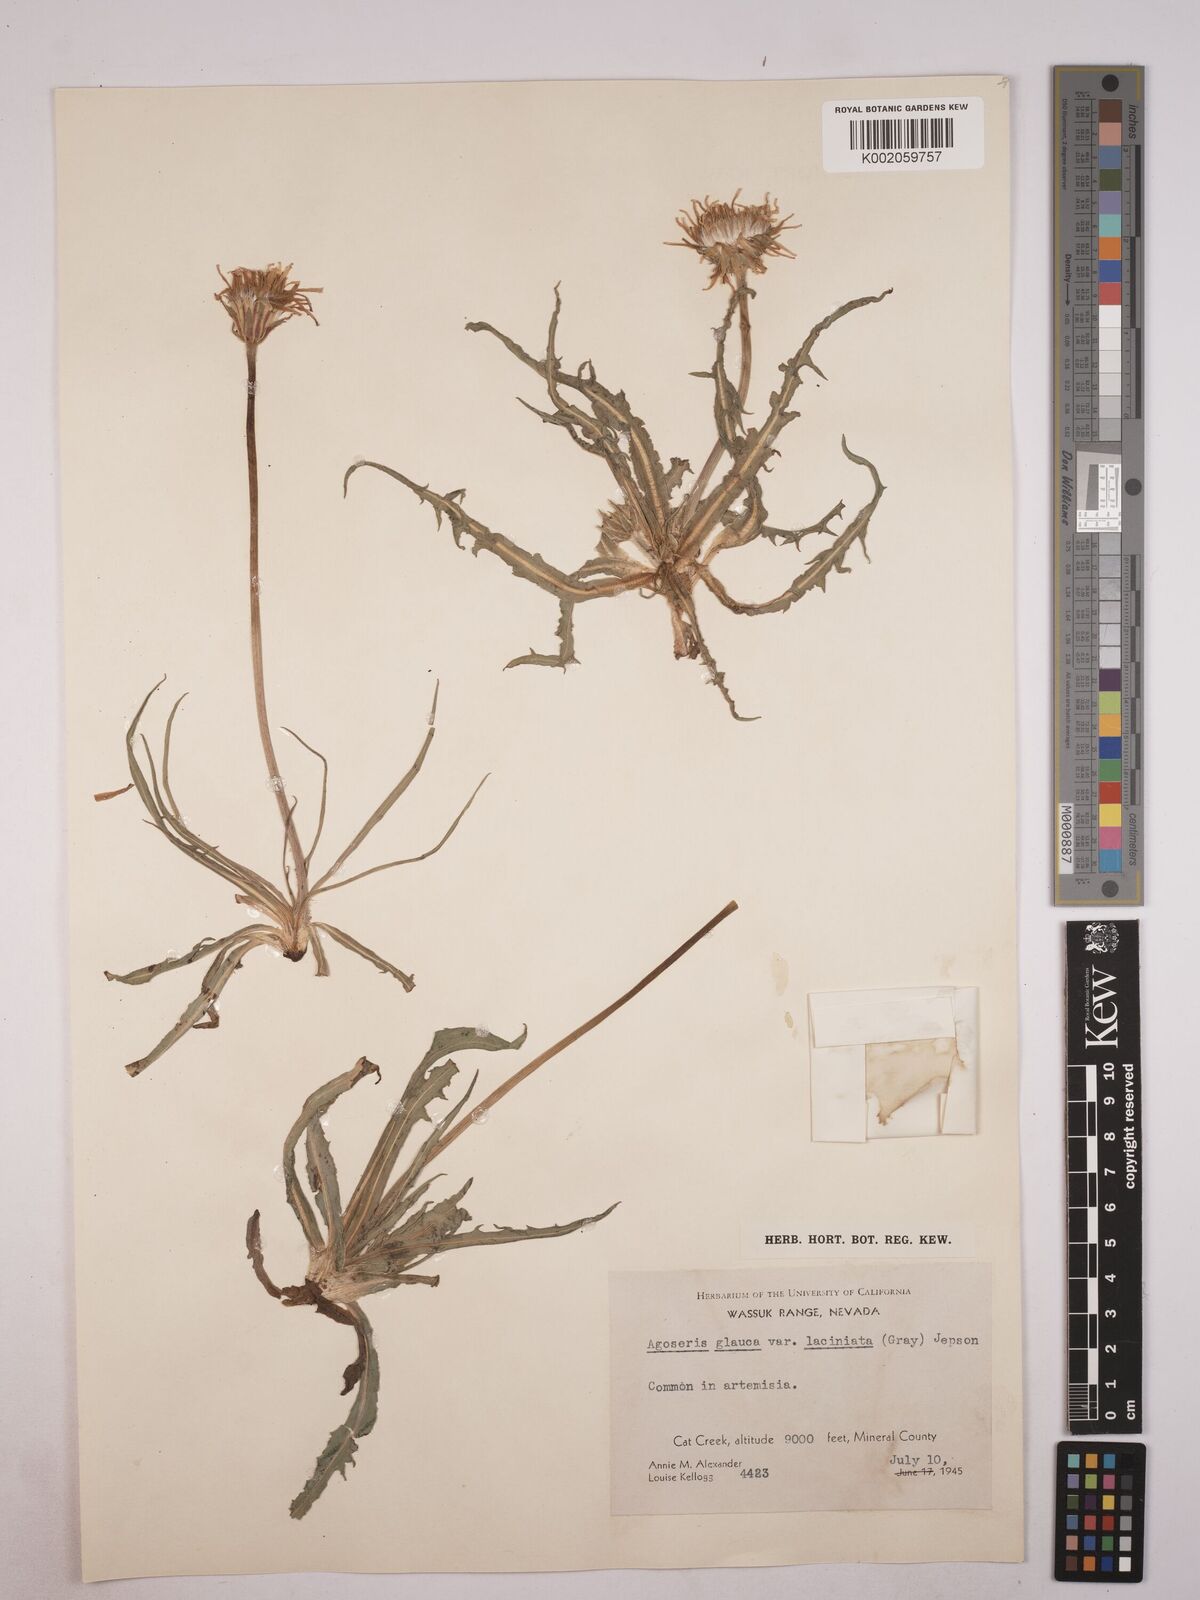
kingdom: Plantae
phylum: Tracheophyta
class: Magnoliopsida
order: Asterales
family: Asteraceae
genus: Agoseris
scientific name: Agoseris glauca
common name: Prairie agoseris
